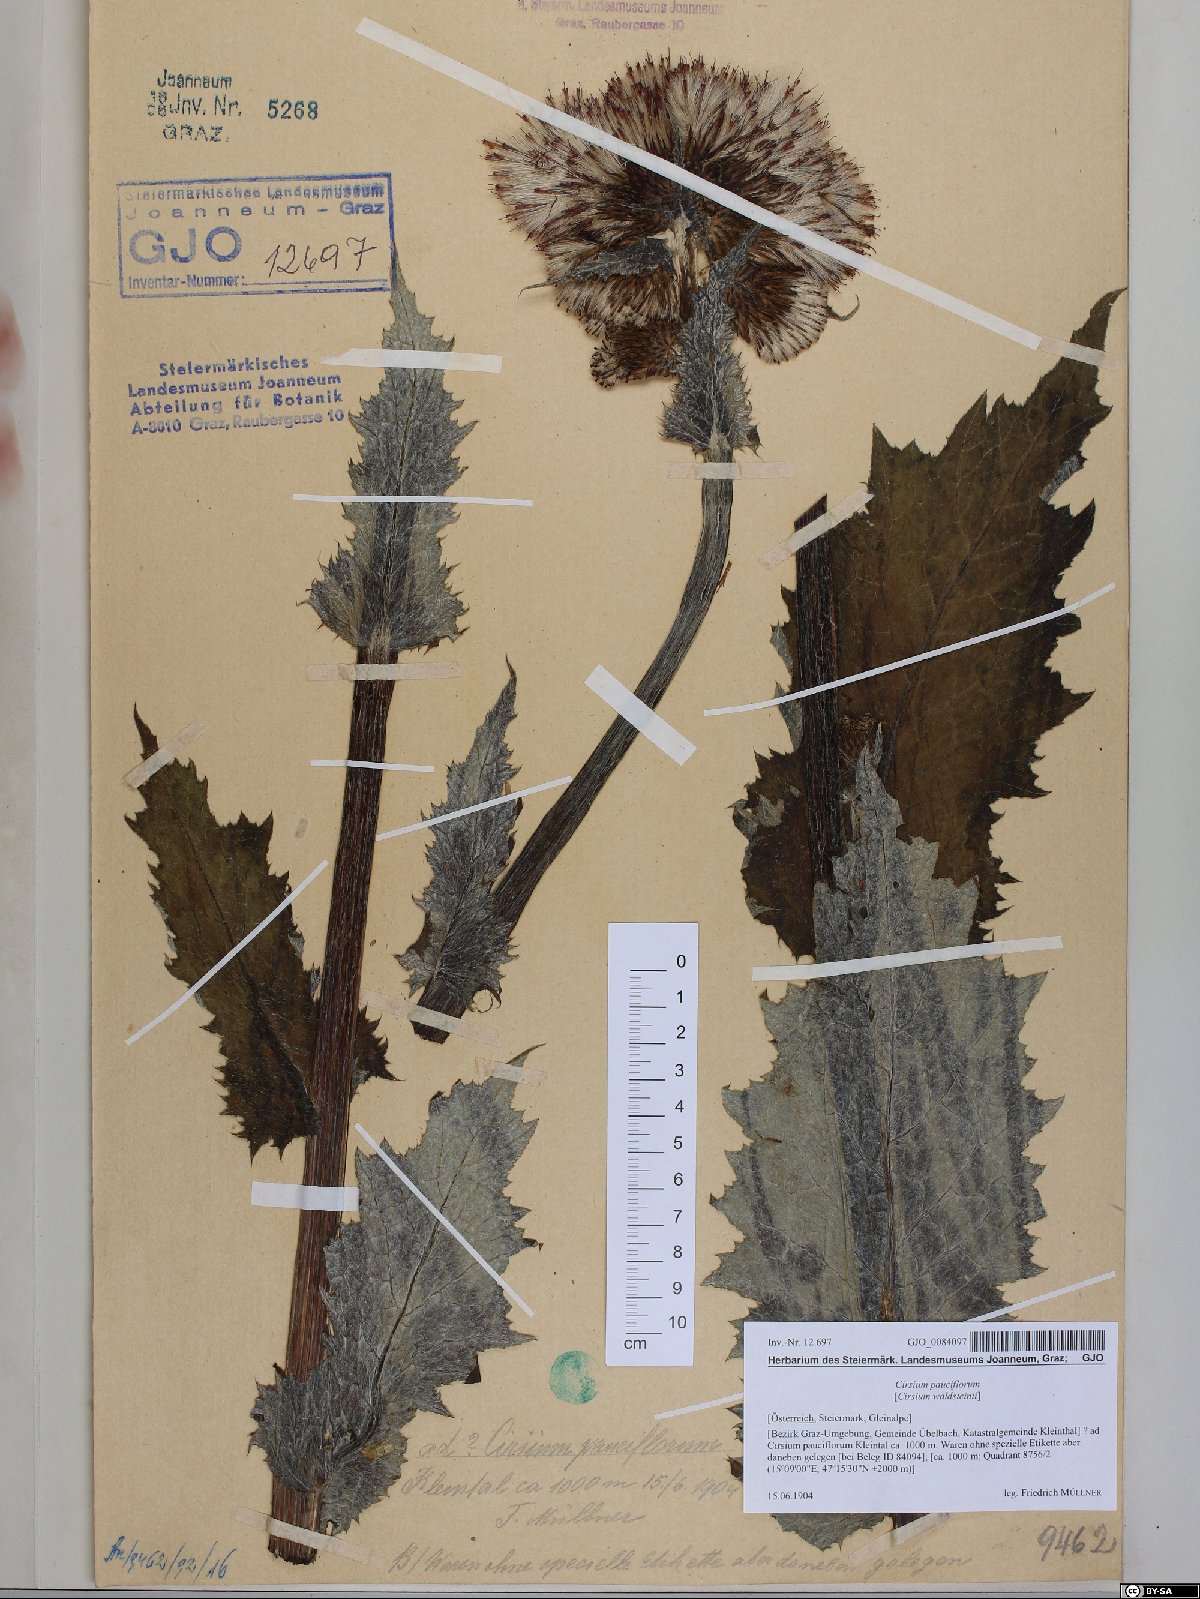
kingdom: Plantae
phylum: Tracheophyta
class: Magnoliopsida
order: Asterales
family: Asteraceae
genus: Cirsium
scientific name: Cirsium greimleri
